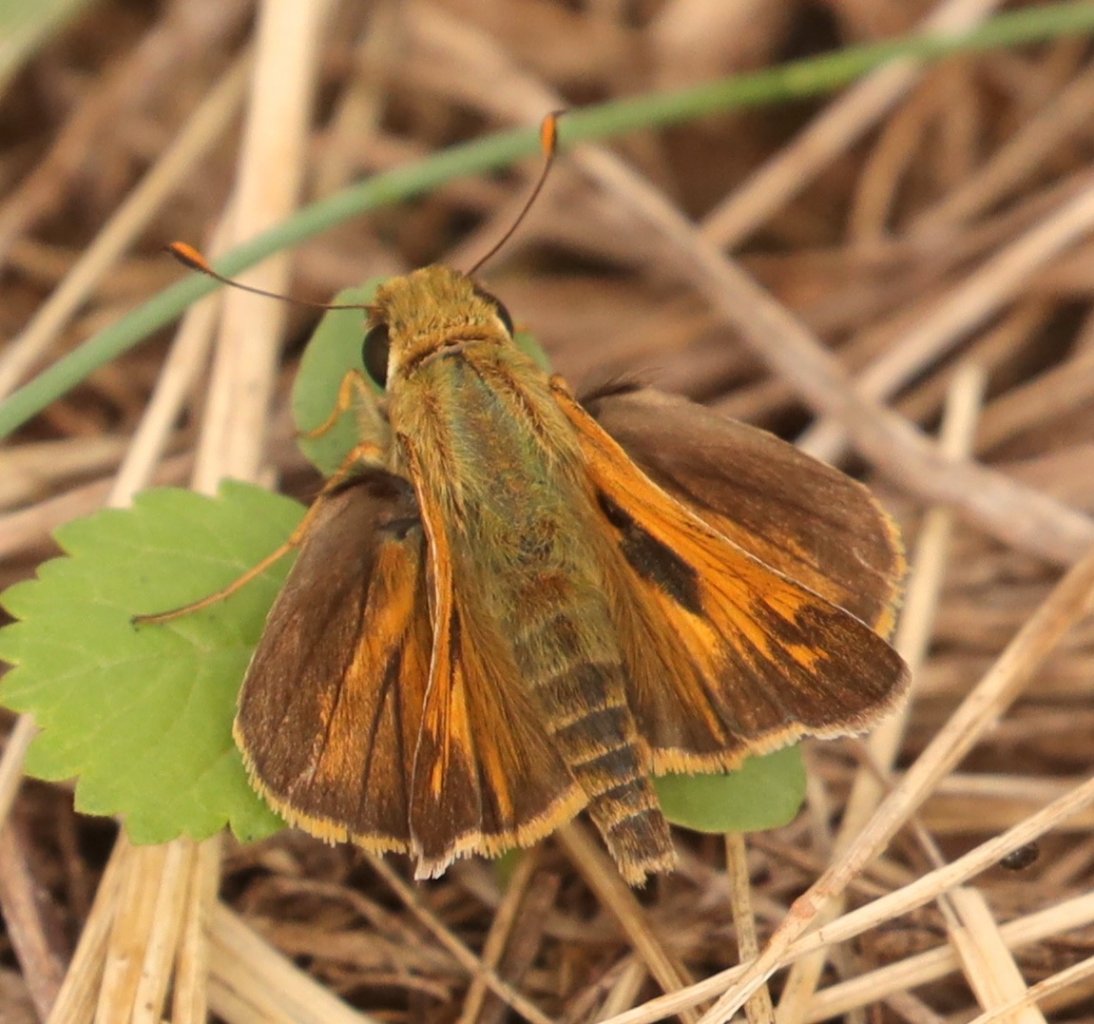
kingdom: Animalia
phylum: Arthropoda
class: Insecta
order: Lepidoptera
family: Hesperiidae
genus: Atalopedes
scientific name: Atalopedes campestris
